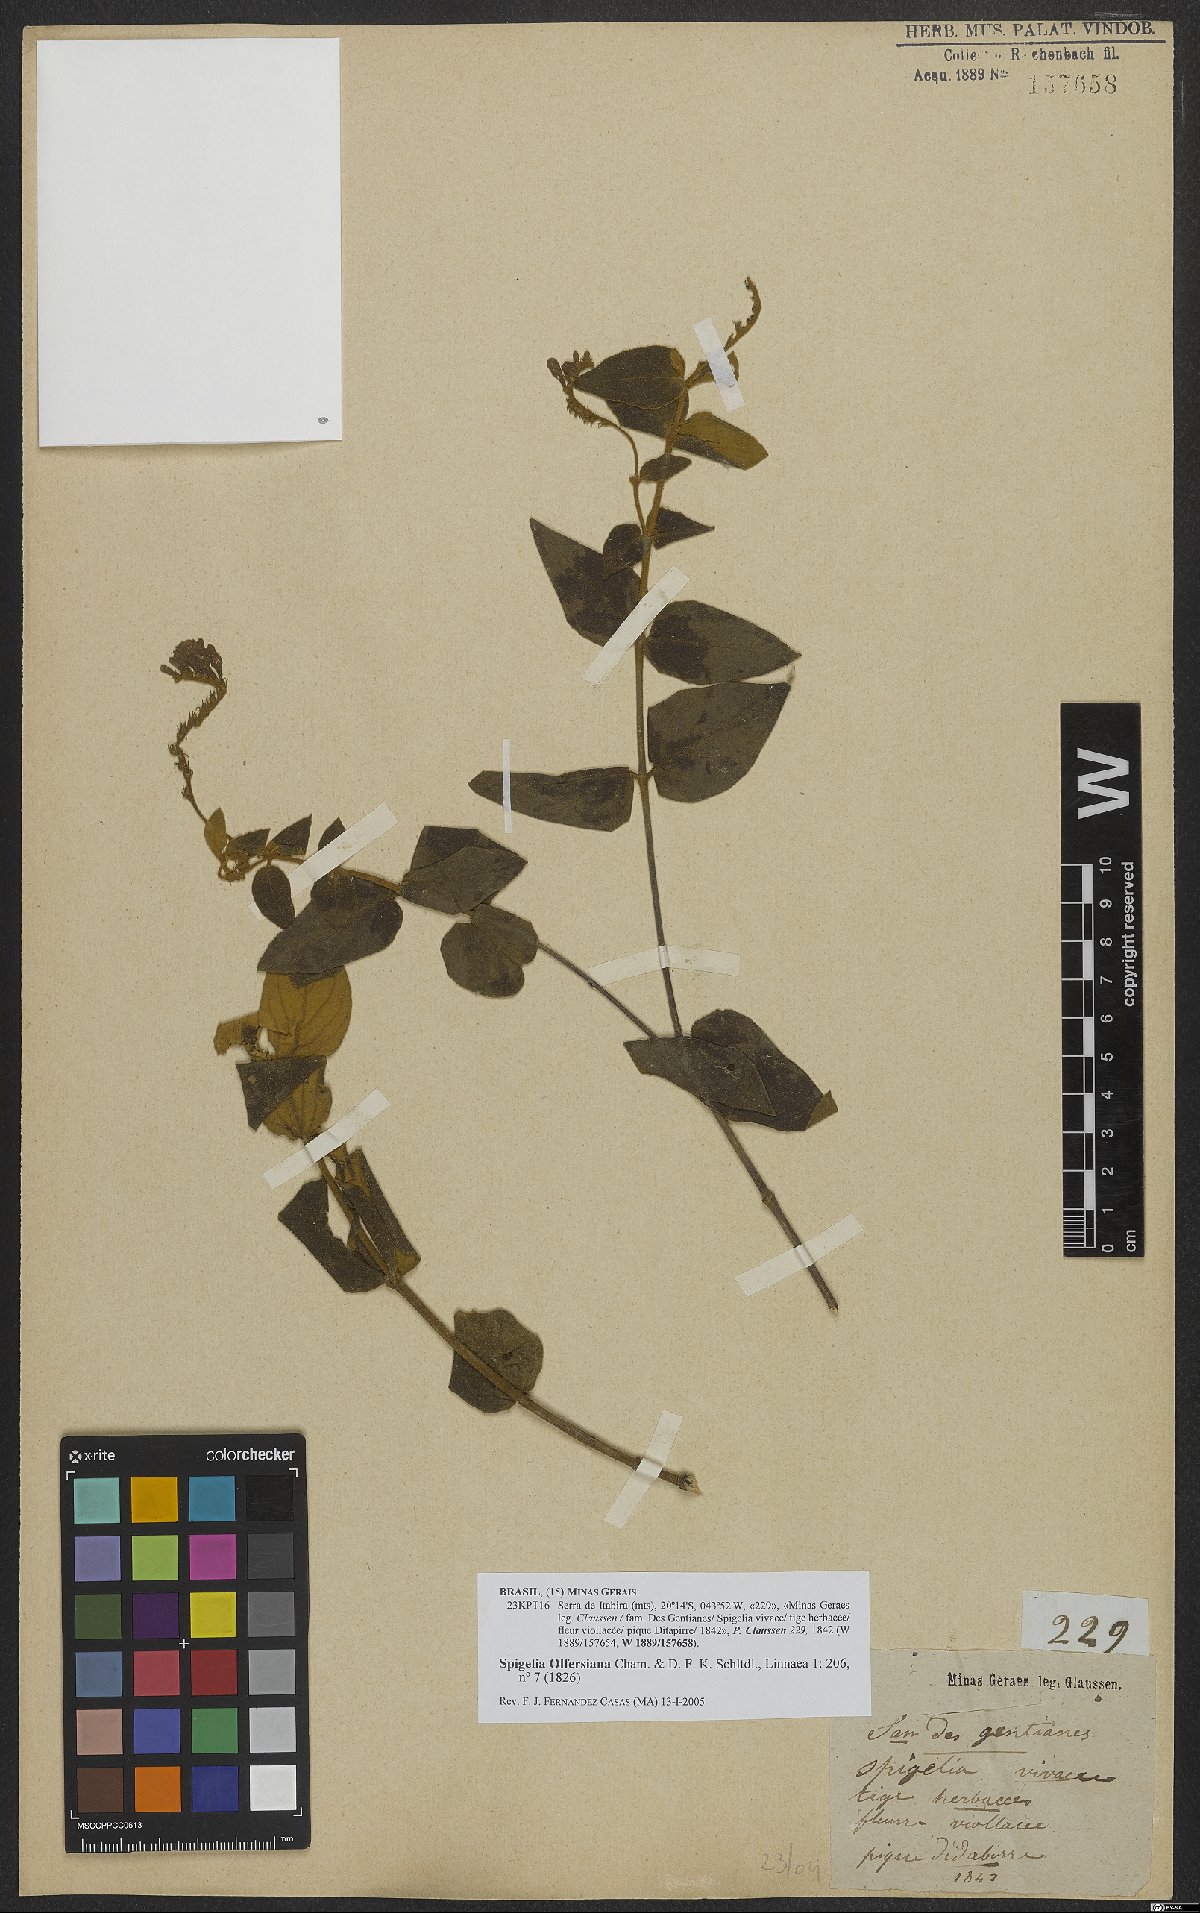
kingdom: Plantae
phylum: Tracheophyta
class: Magnoliopsida
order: Gentianales
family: Loganiaceae
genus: Spigelia
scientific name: Spigelia olfersiana
